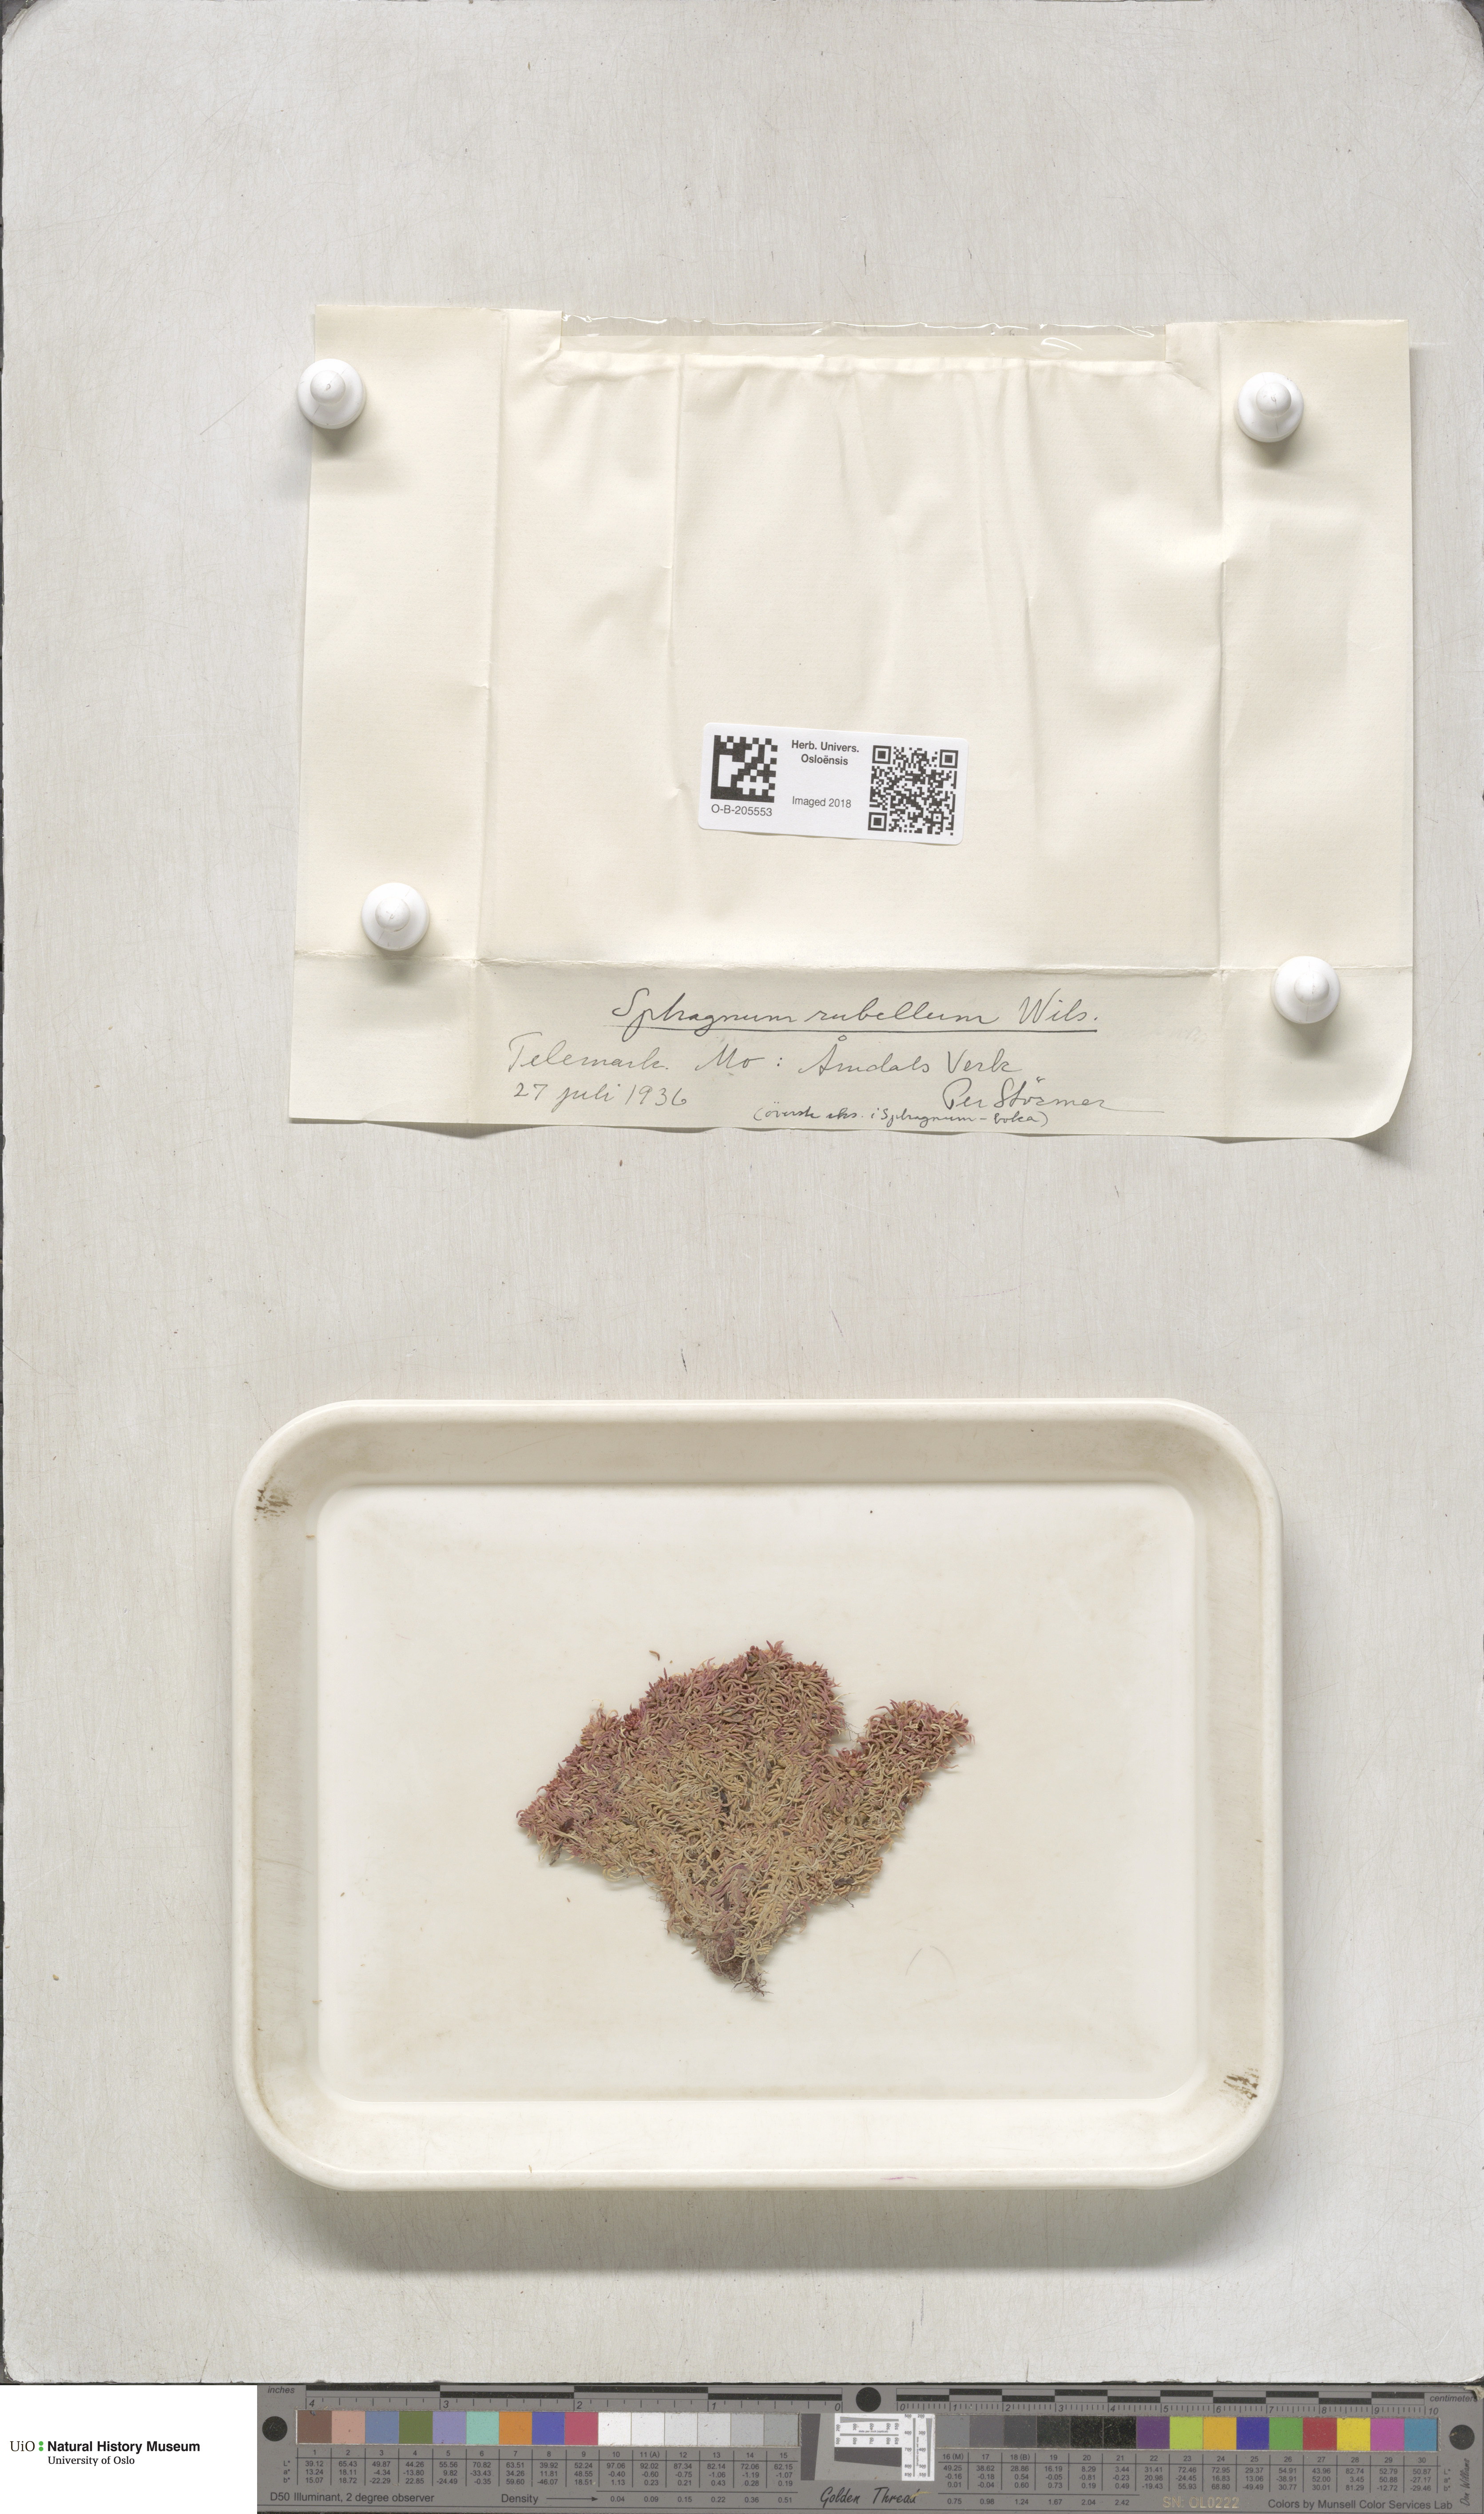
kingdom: Plantae
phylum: Bryophyta
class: Sphagnopsida
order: Sphagnales
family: Sphagnaceae
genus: Sphagnum
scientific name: Sphagnum rubellum
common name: Red peat moss
